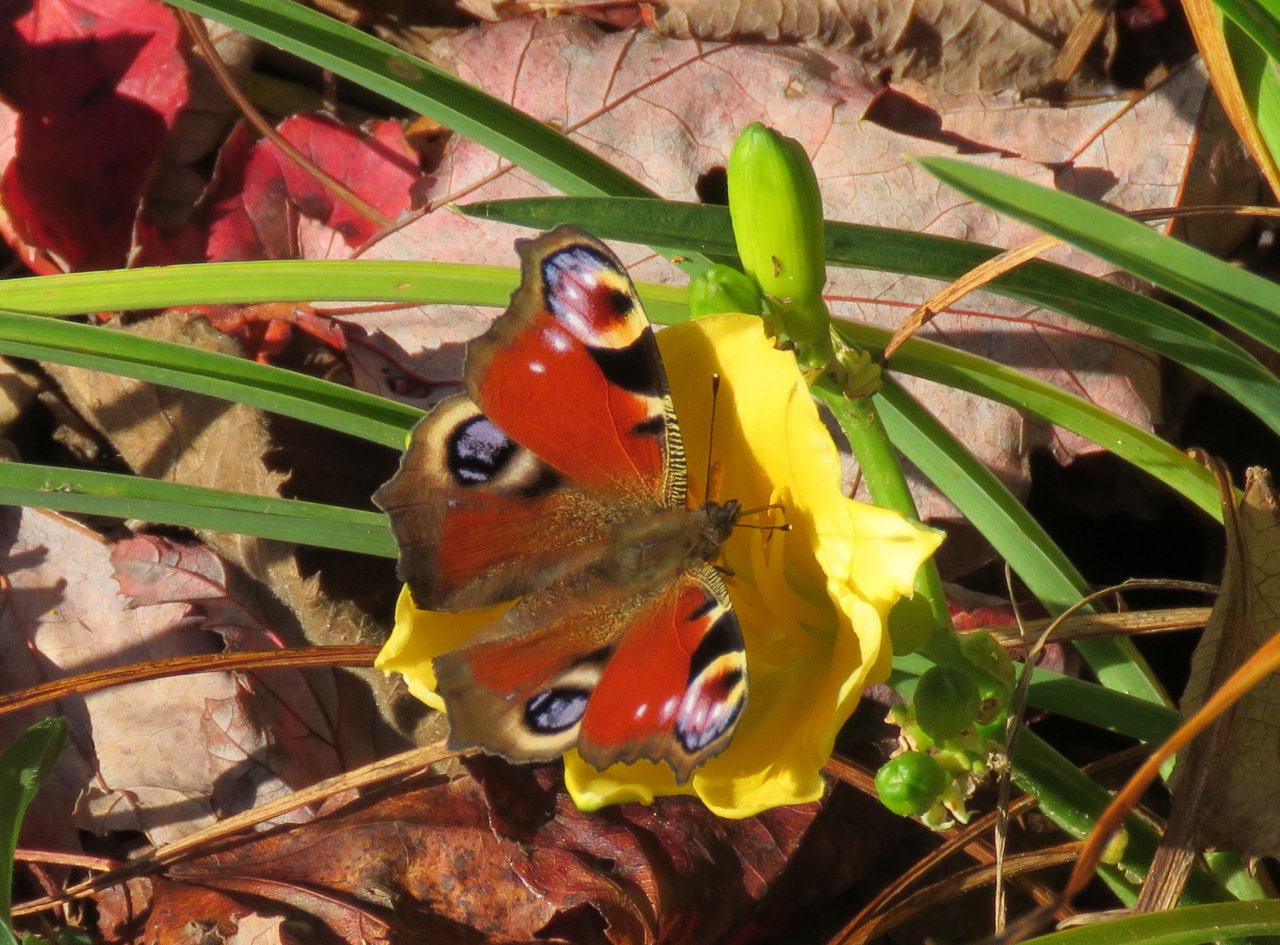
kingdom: Animalia
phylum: Arthropoda
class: Insecta
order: Lepidoptera
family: Nymphalidae
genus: Aglais
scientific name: Aglais io
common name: European Peacock
